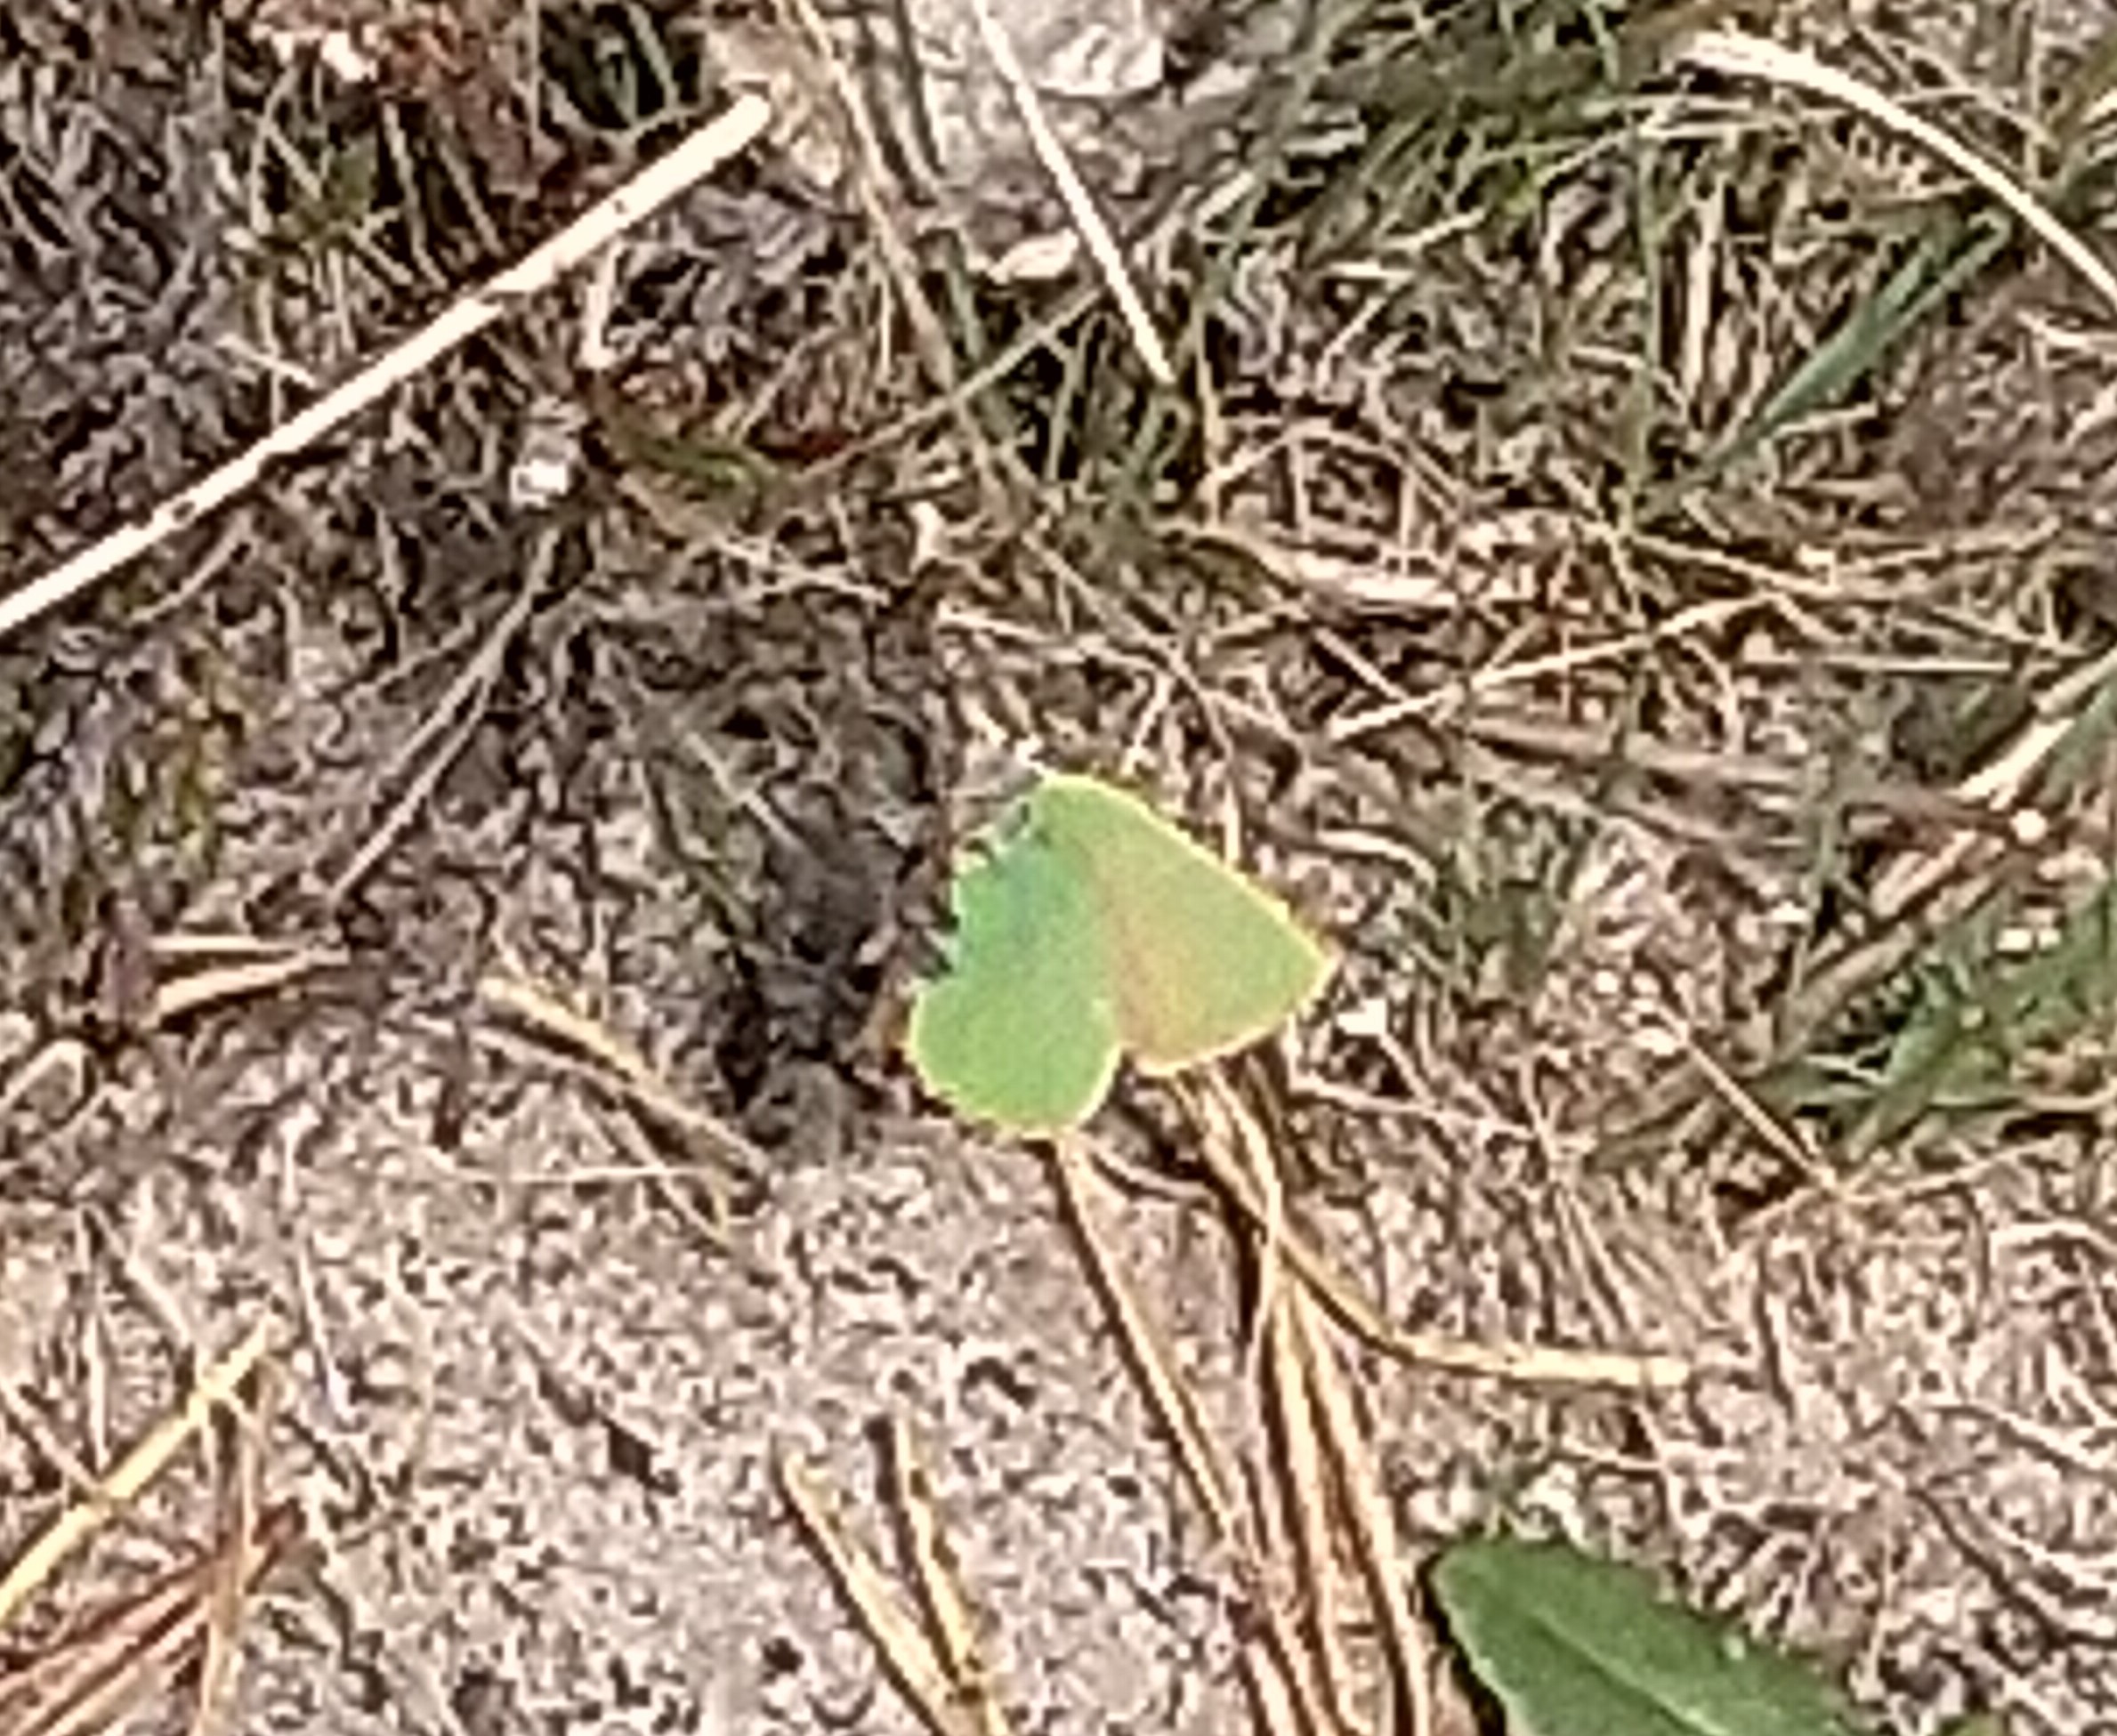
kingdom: Animalia
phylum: Arthropoda
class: Insecta
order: Lepidoptera
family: Lycaenidae
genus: Callophrys
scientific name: Callophrys rubi
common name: Grøn busksommerfugl
